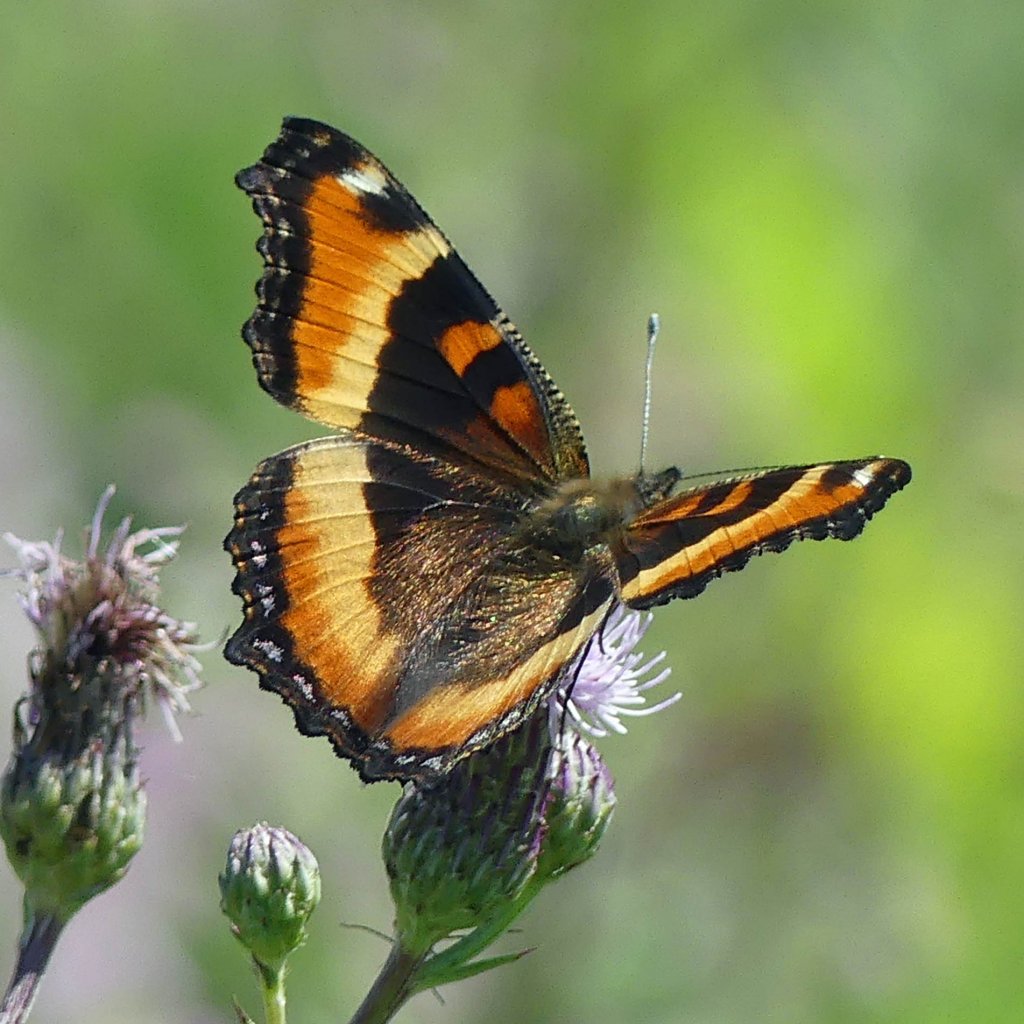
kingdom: Animalia
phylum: Arthropoda
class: Insecta
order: Lepidoptera
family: Nymphalidae
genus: Aglais
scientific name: Aglais milberti
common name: Milbert's Tortoiseshell
